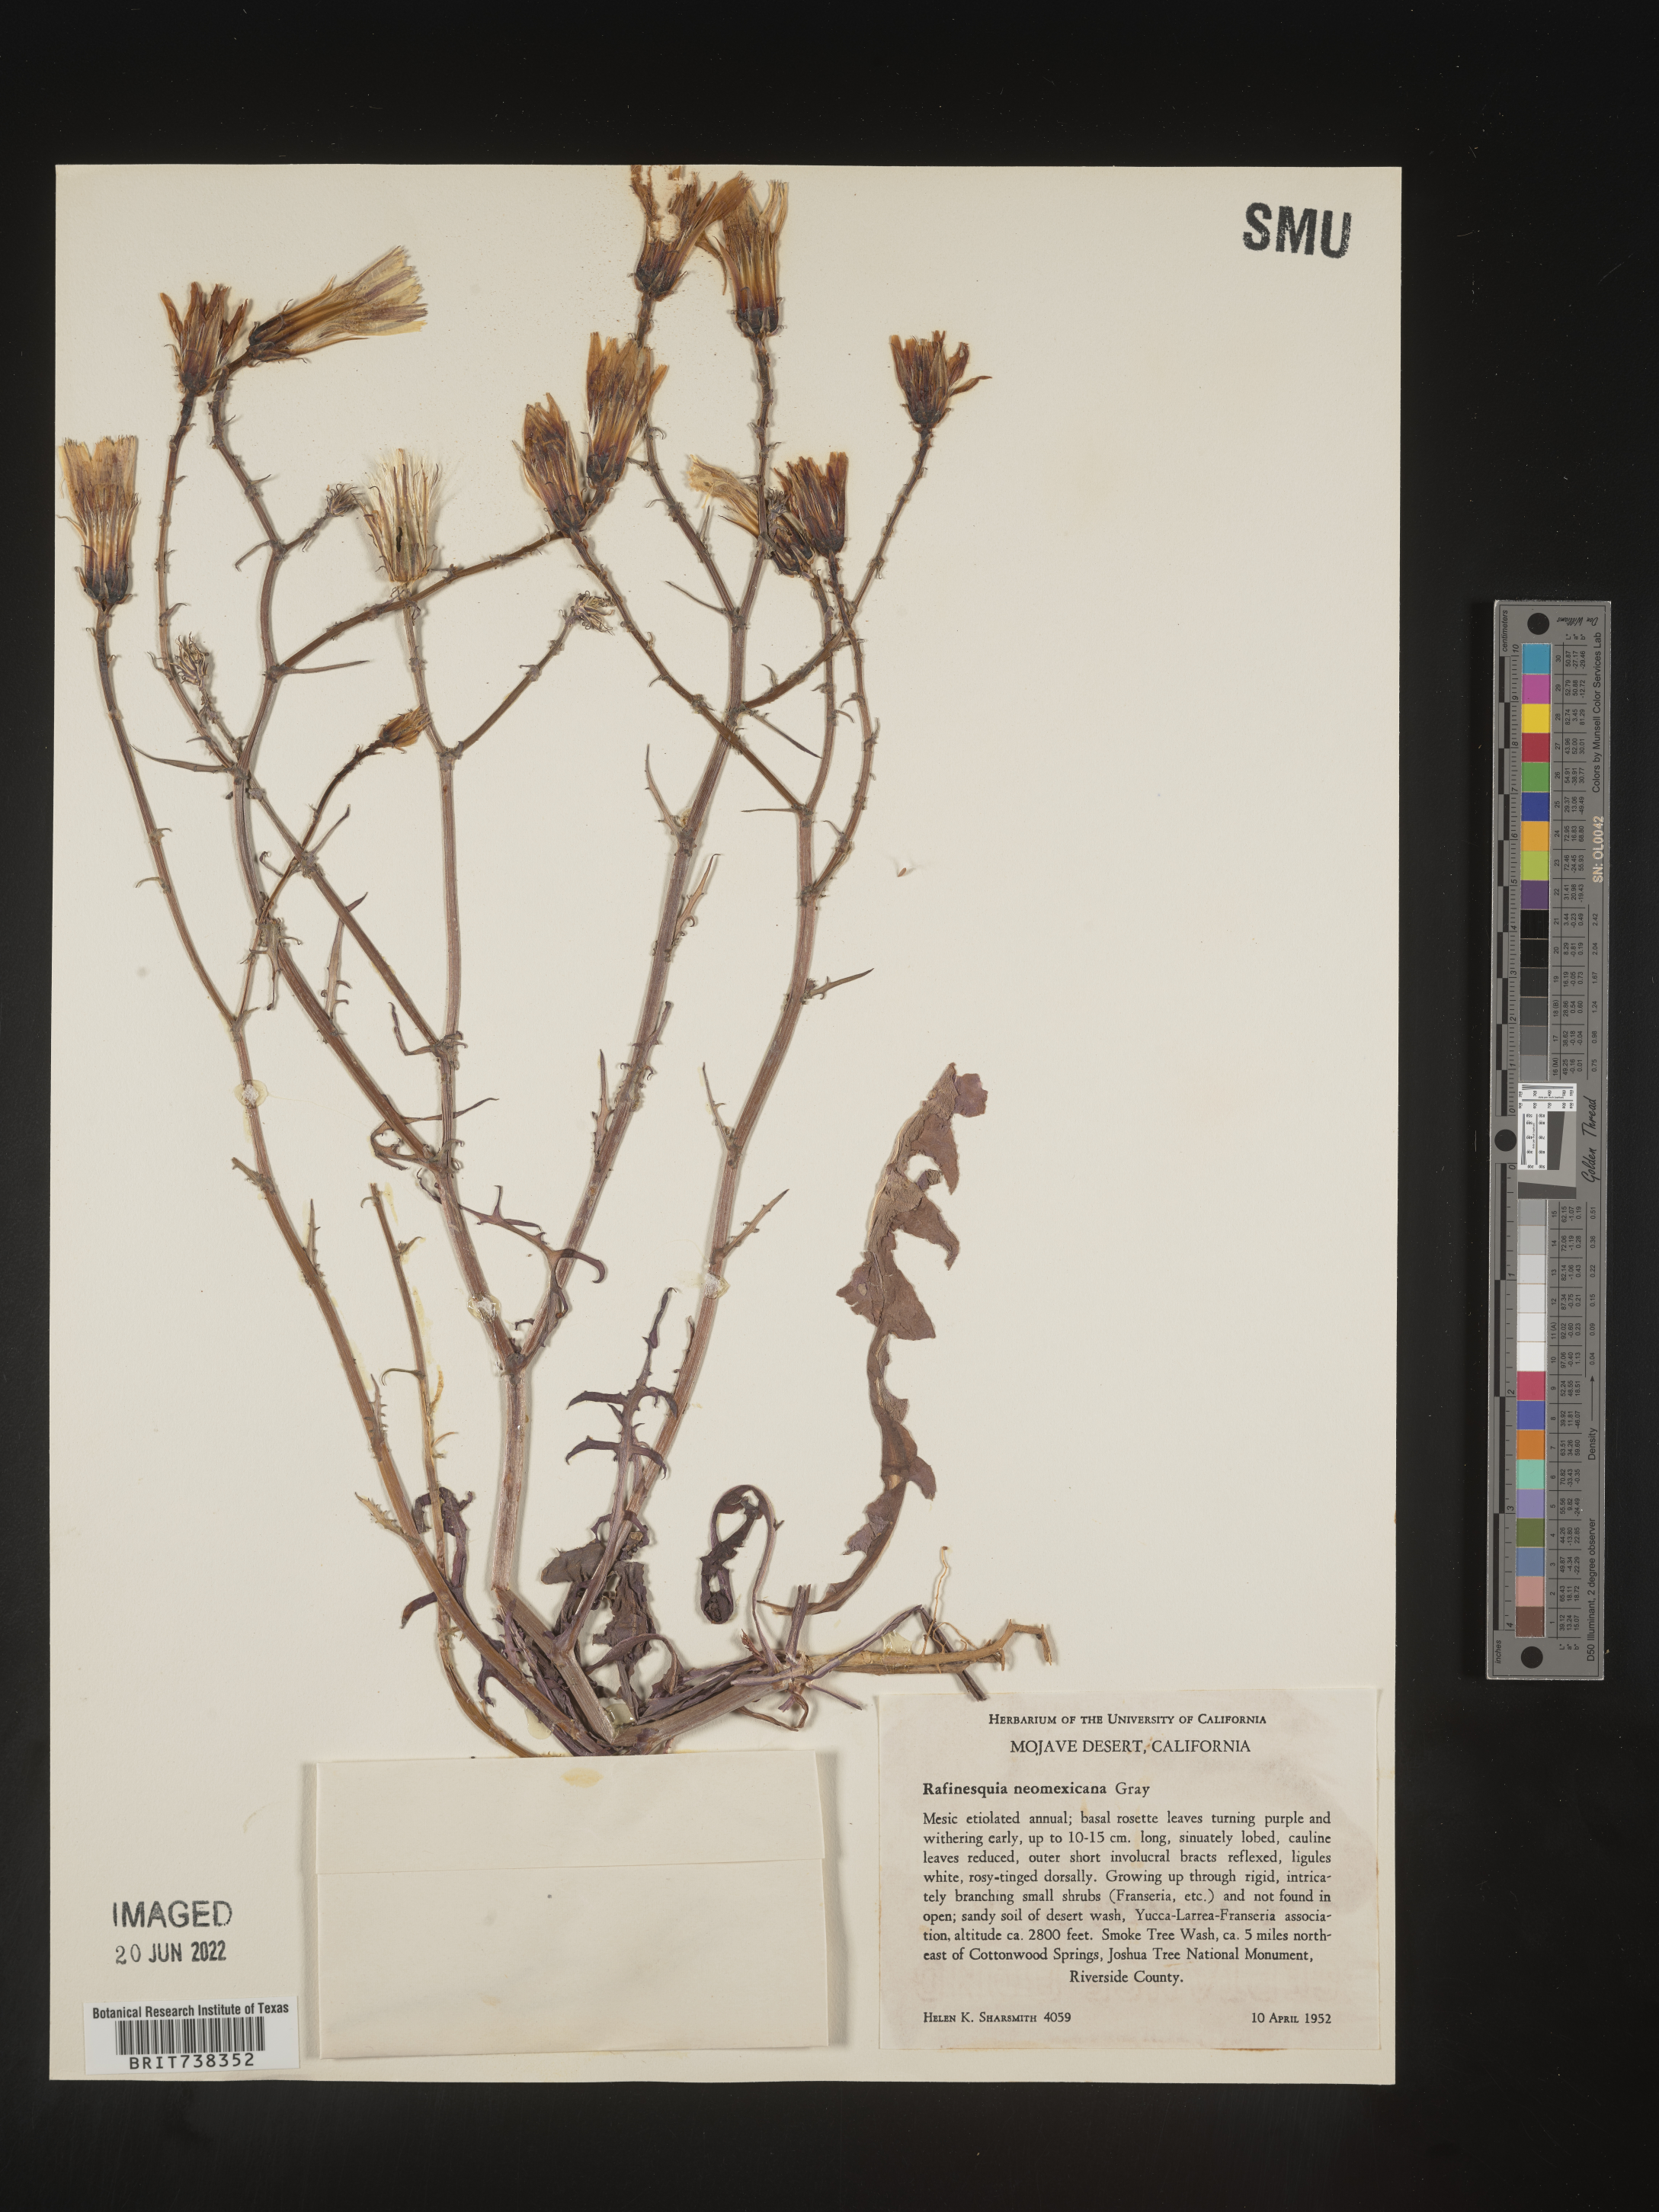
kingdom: Plantae
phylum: Tracheophyta
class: Magnoliopsida
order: Asterales
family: Asteraceae
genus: Rafinesquia
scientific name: Rafinesquia
